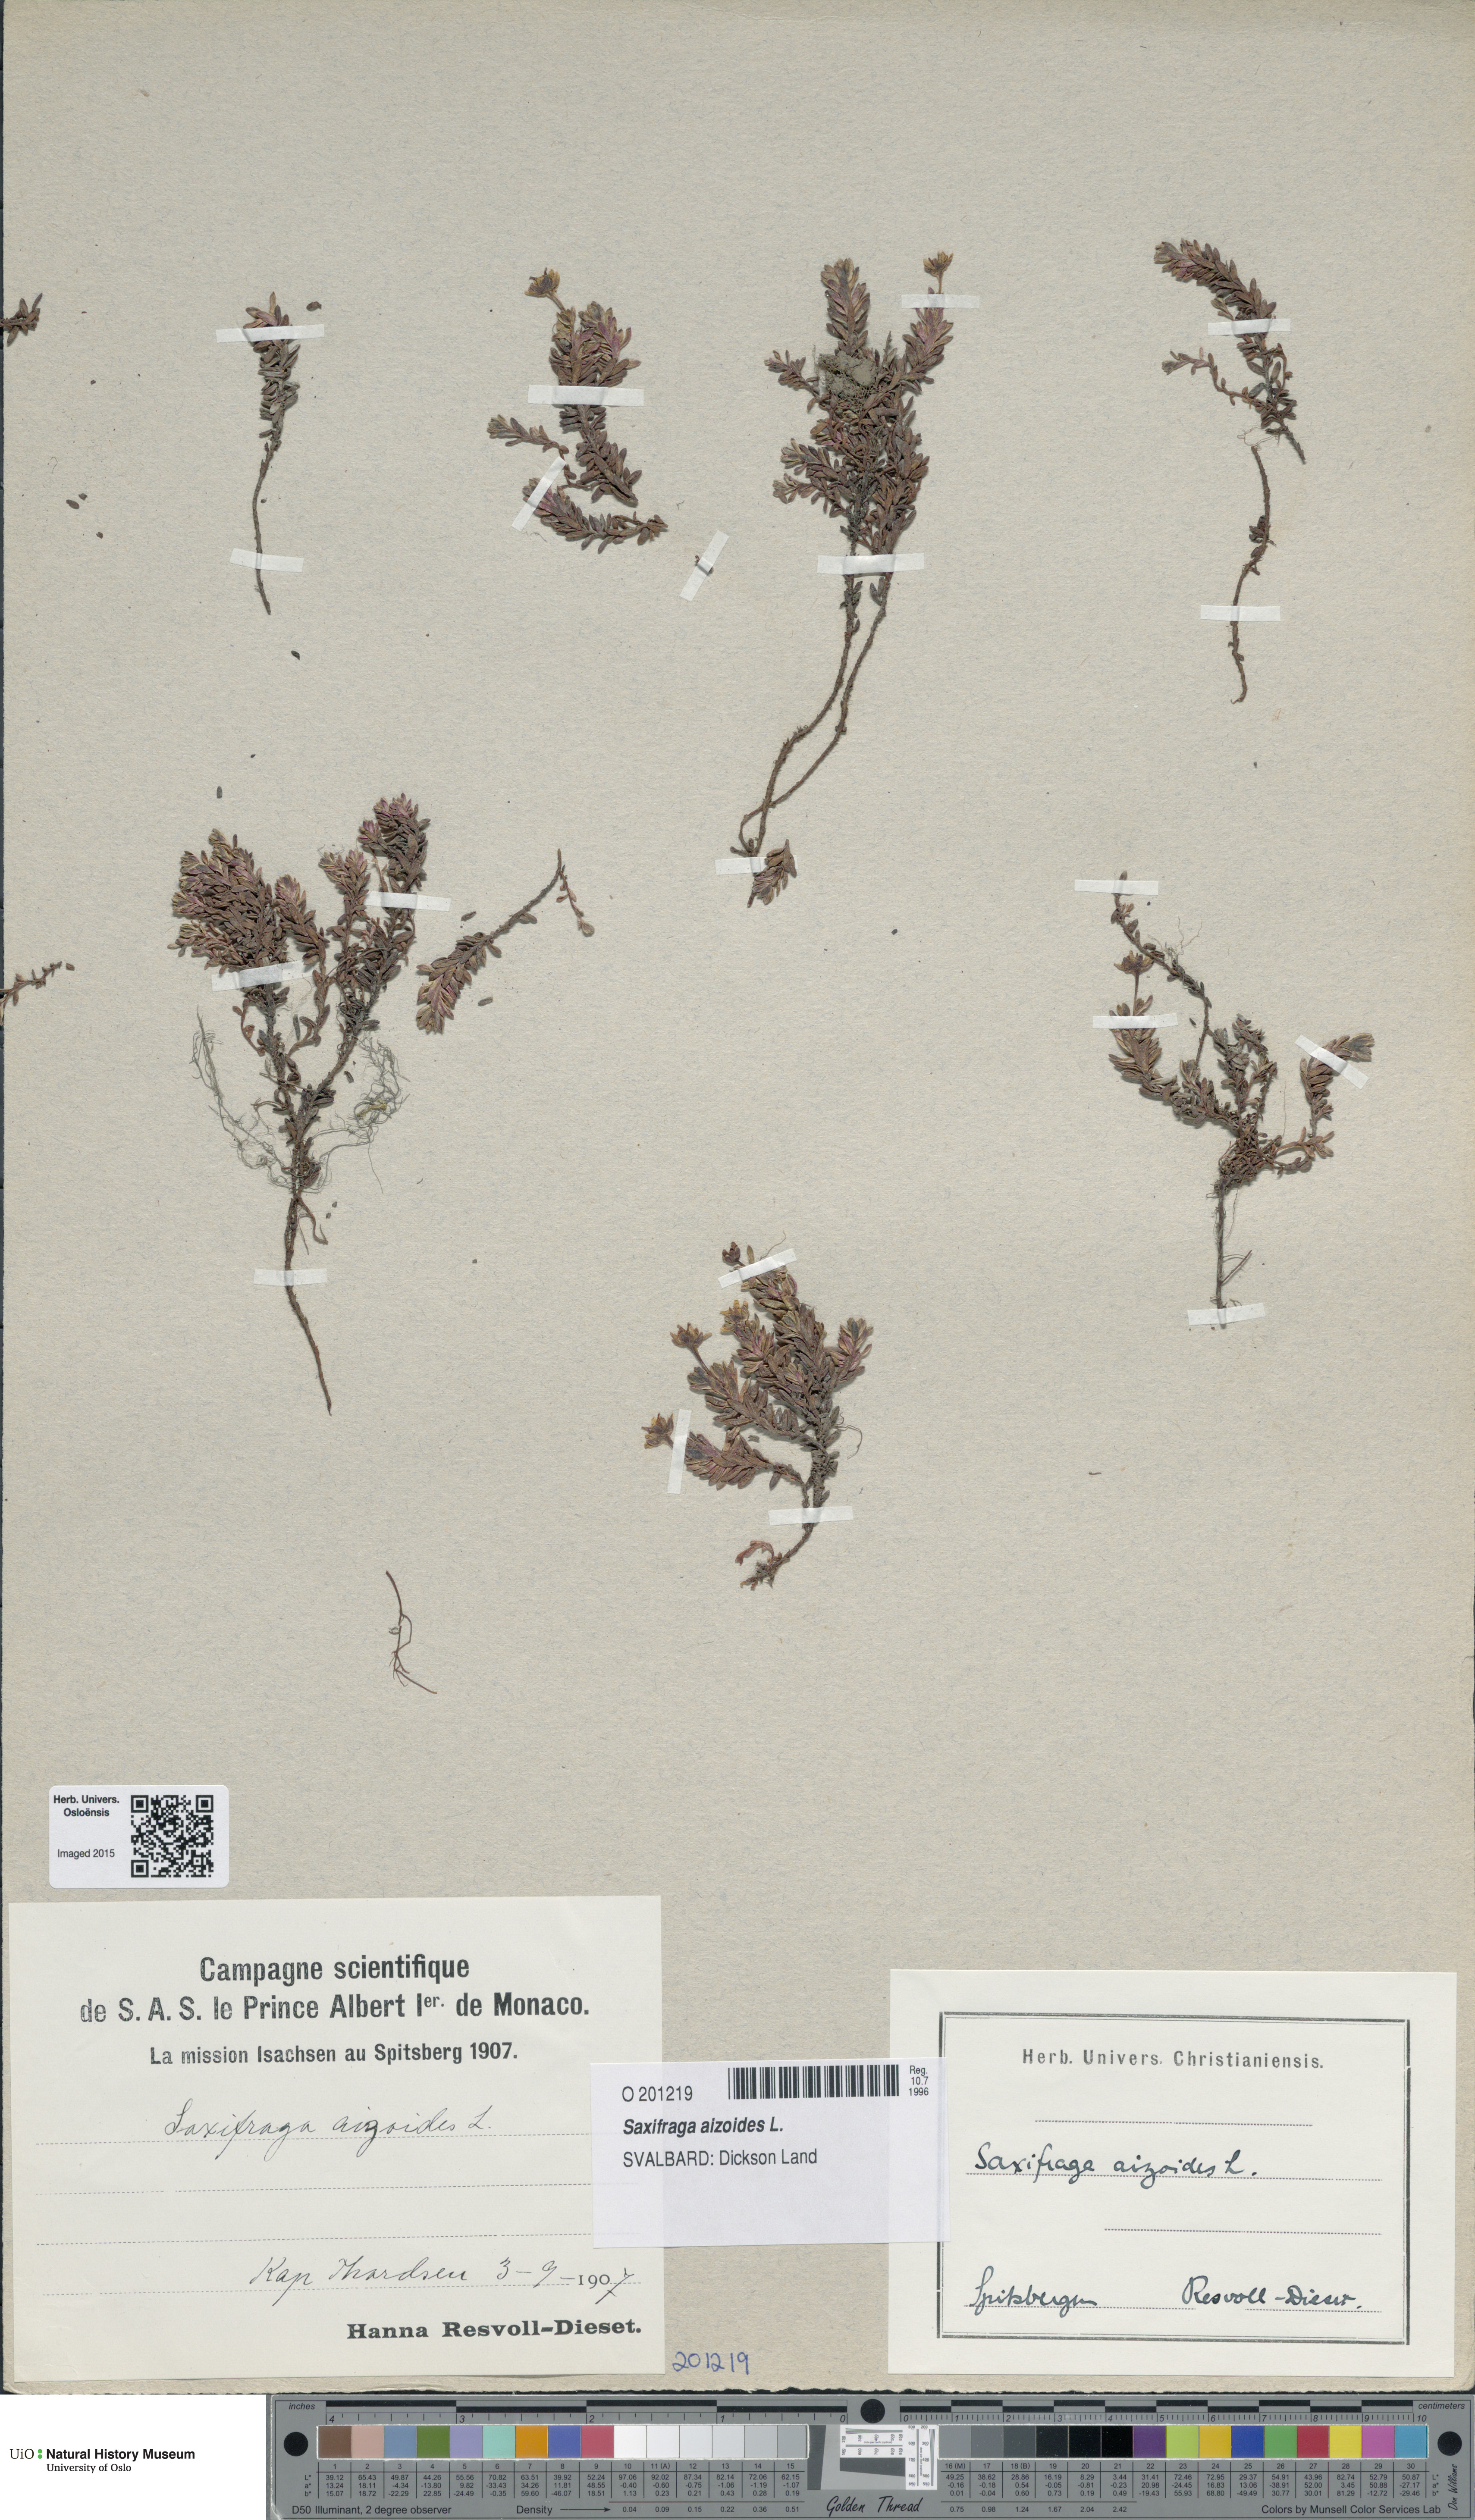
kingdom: Plantae
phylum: Tracheophyta
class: Magnoliopsida
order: Saxifragales
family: Saxifragaceae
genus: Saxifraga
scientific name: Saxifraga aizoides
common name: Yellow mountain saxifrage
